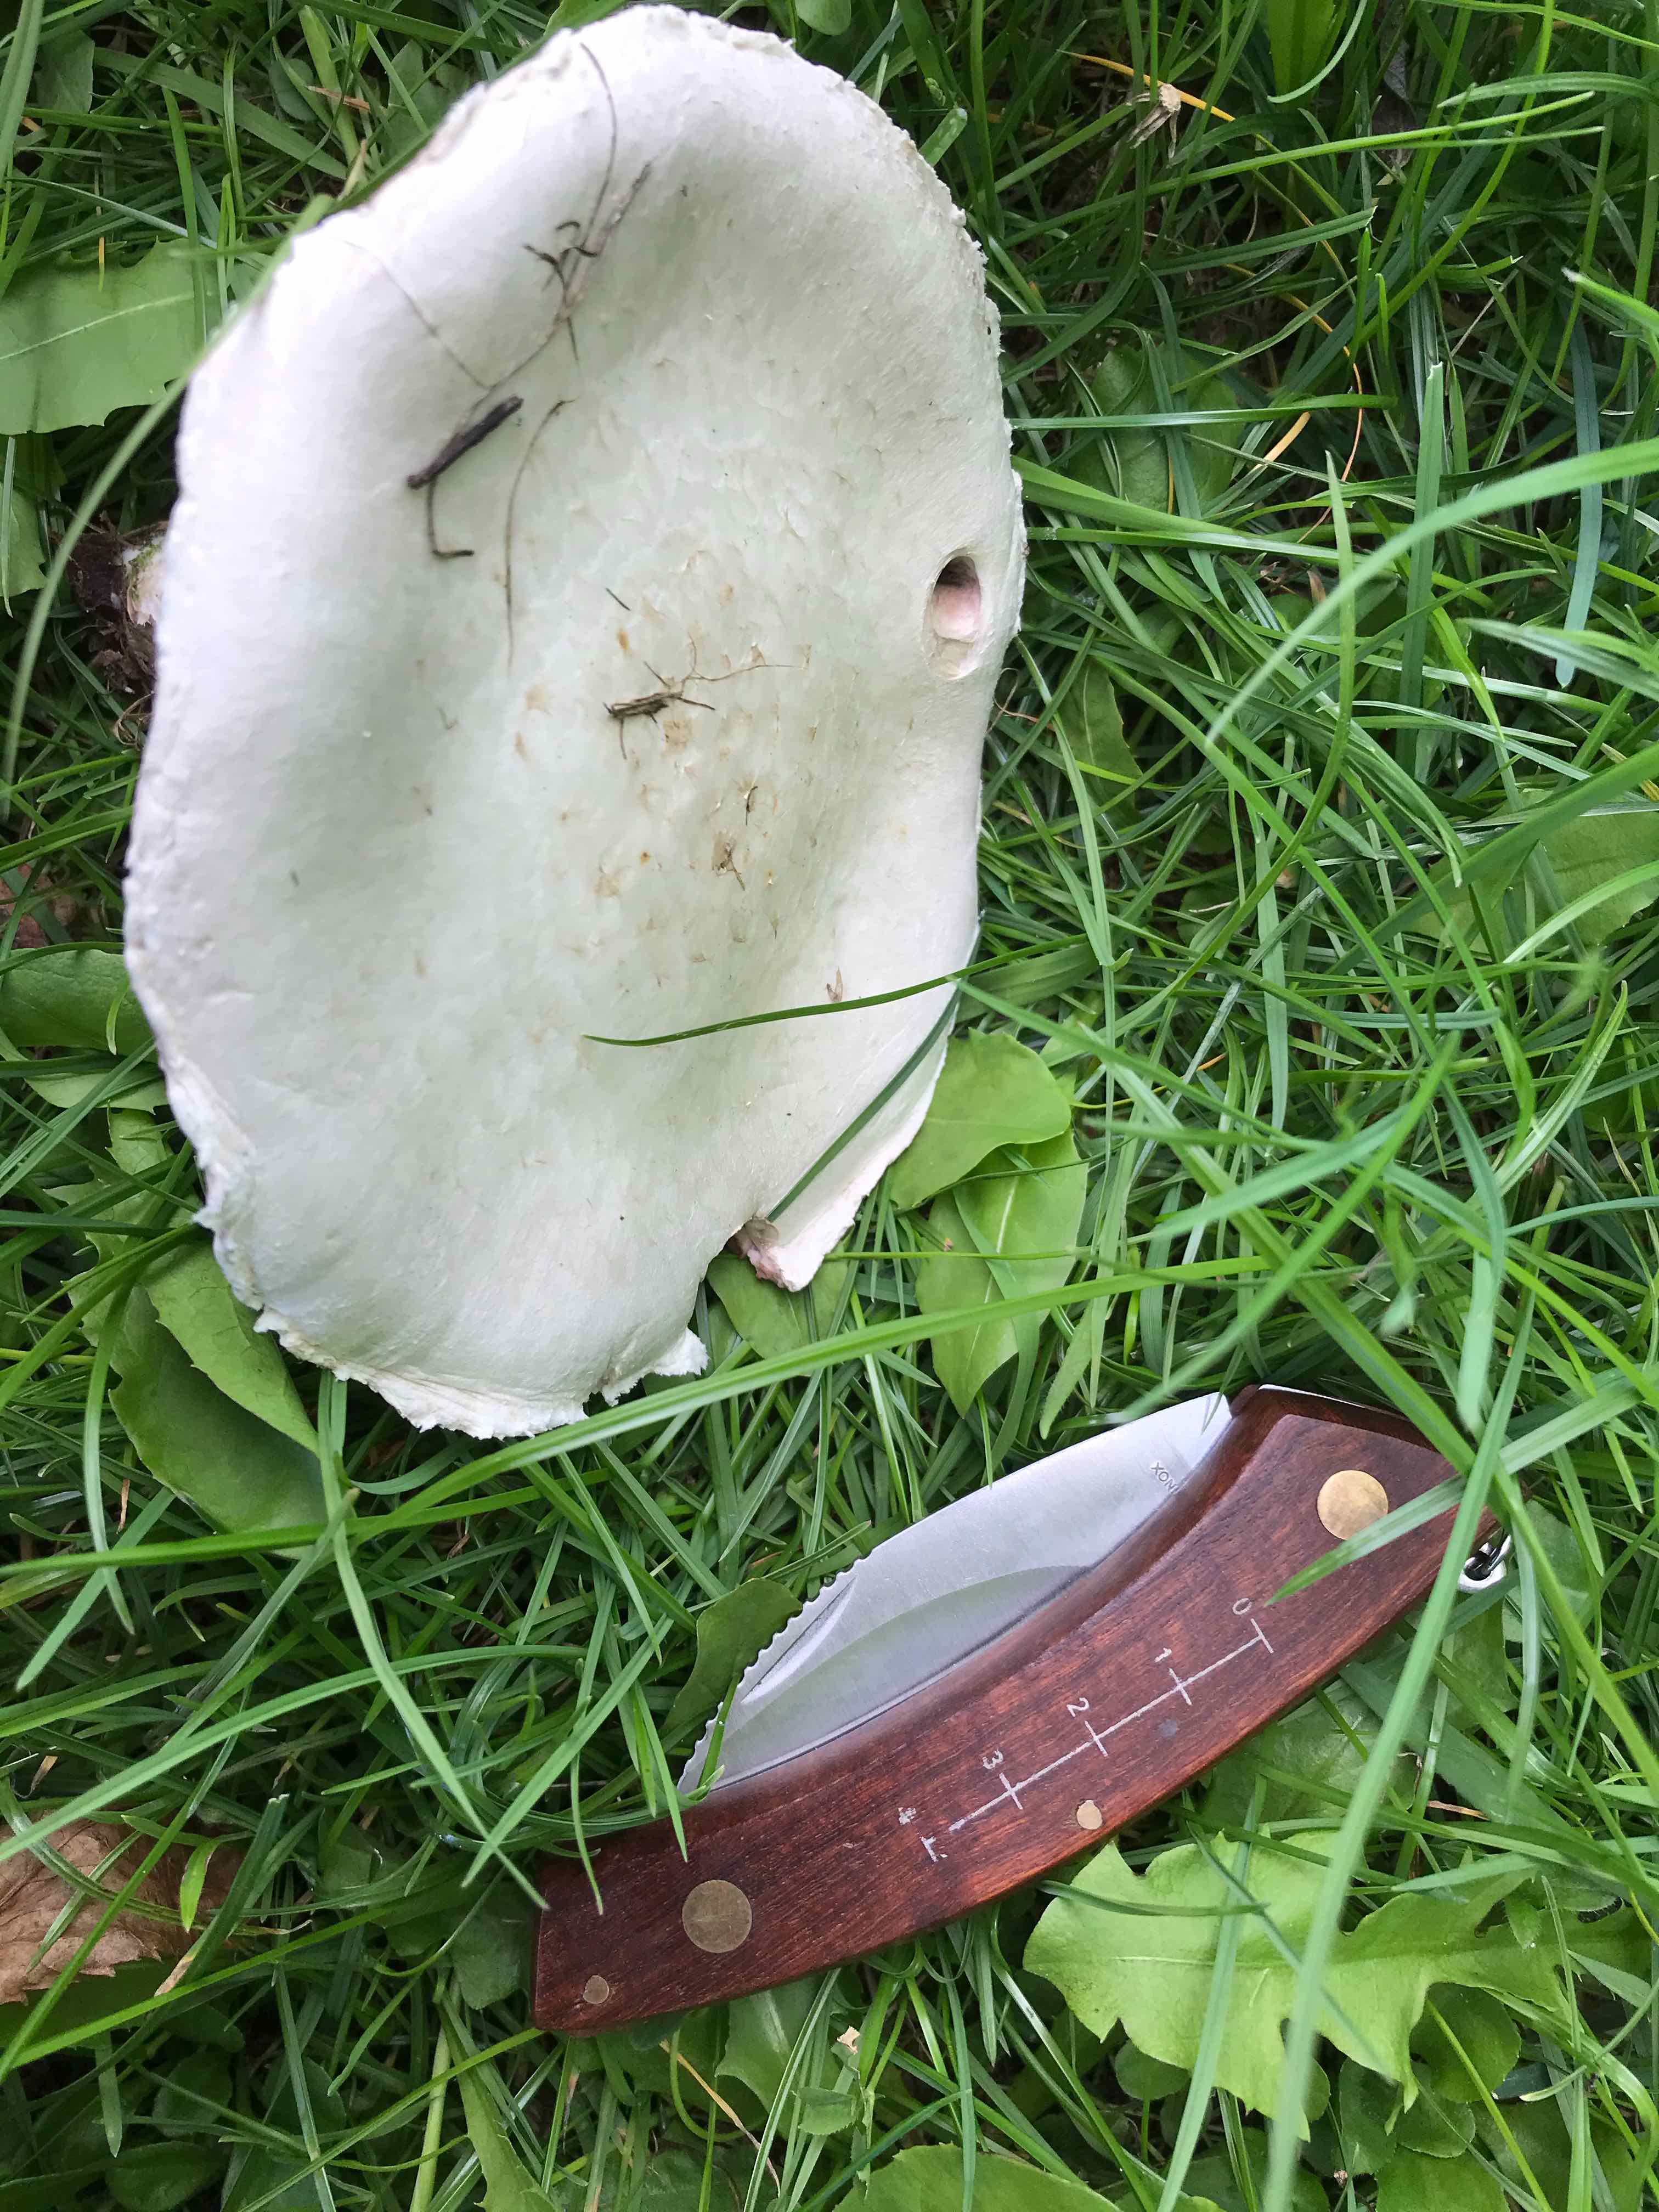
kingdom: Fungi
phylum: Basidiomycota
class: Agaricomycetes
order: Agaricales
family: Agaricaceae
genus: Agaricus
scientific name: Agaricus campestris
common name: mark-champignon
